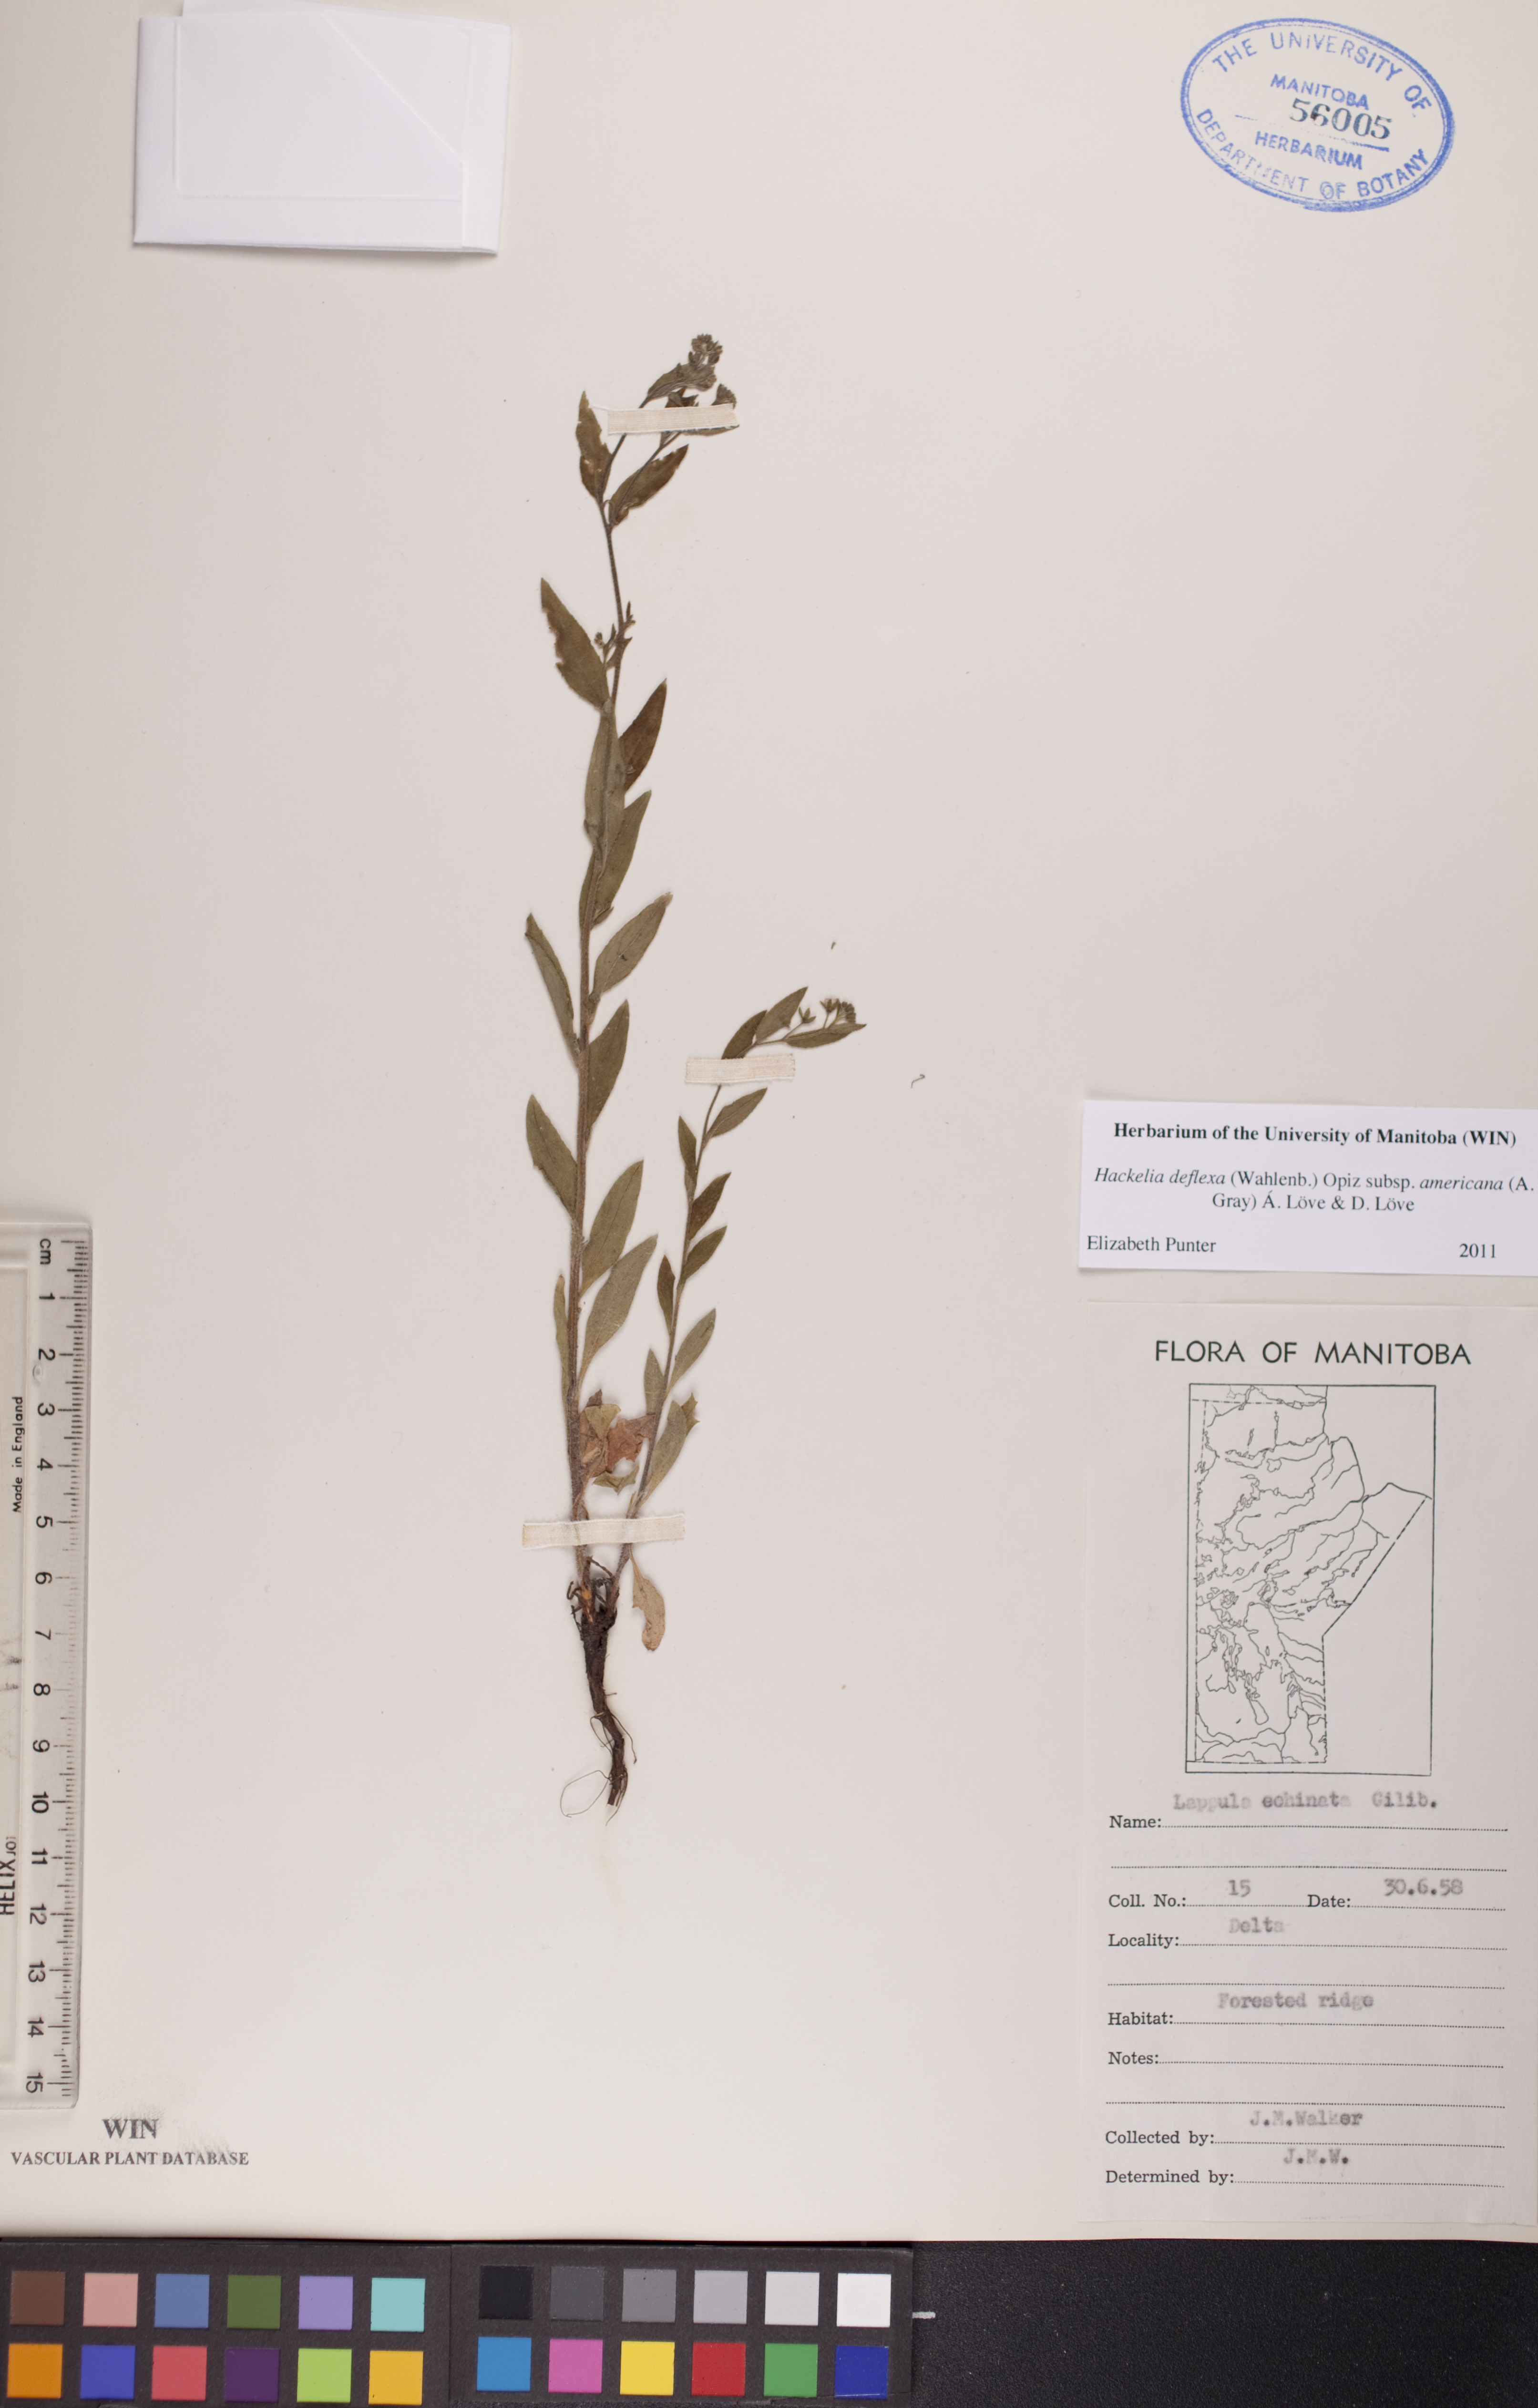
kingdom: Plantae
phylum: Tracheophyta
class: Magnoliopsida
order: Boraginales
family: Boraginaceae
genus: Hackelia
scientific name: Hackelia deflexa
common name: Nodding stickseed
